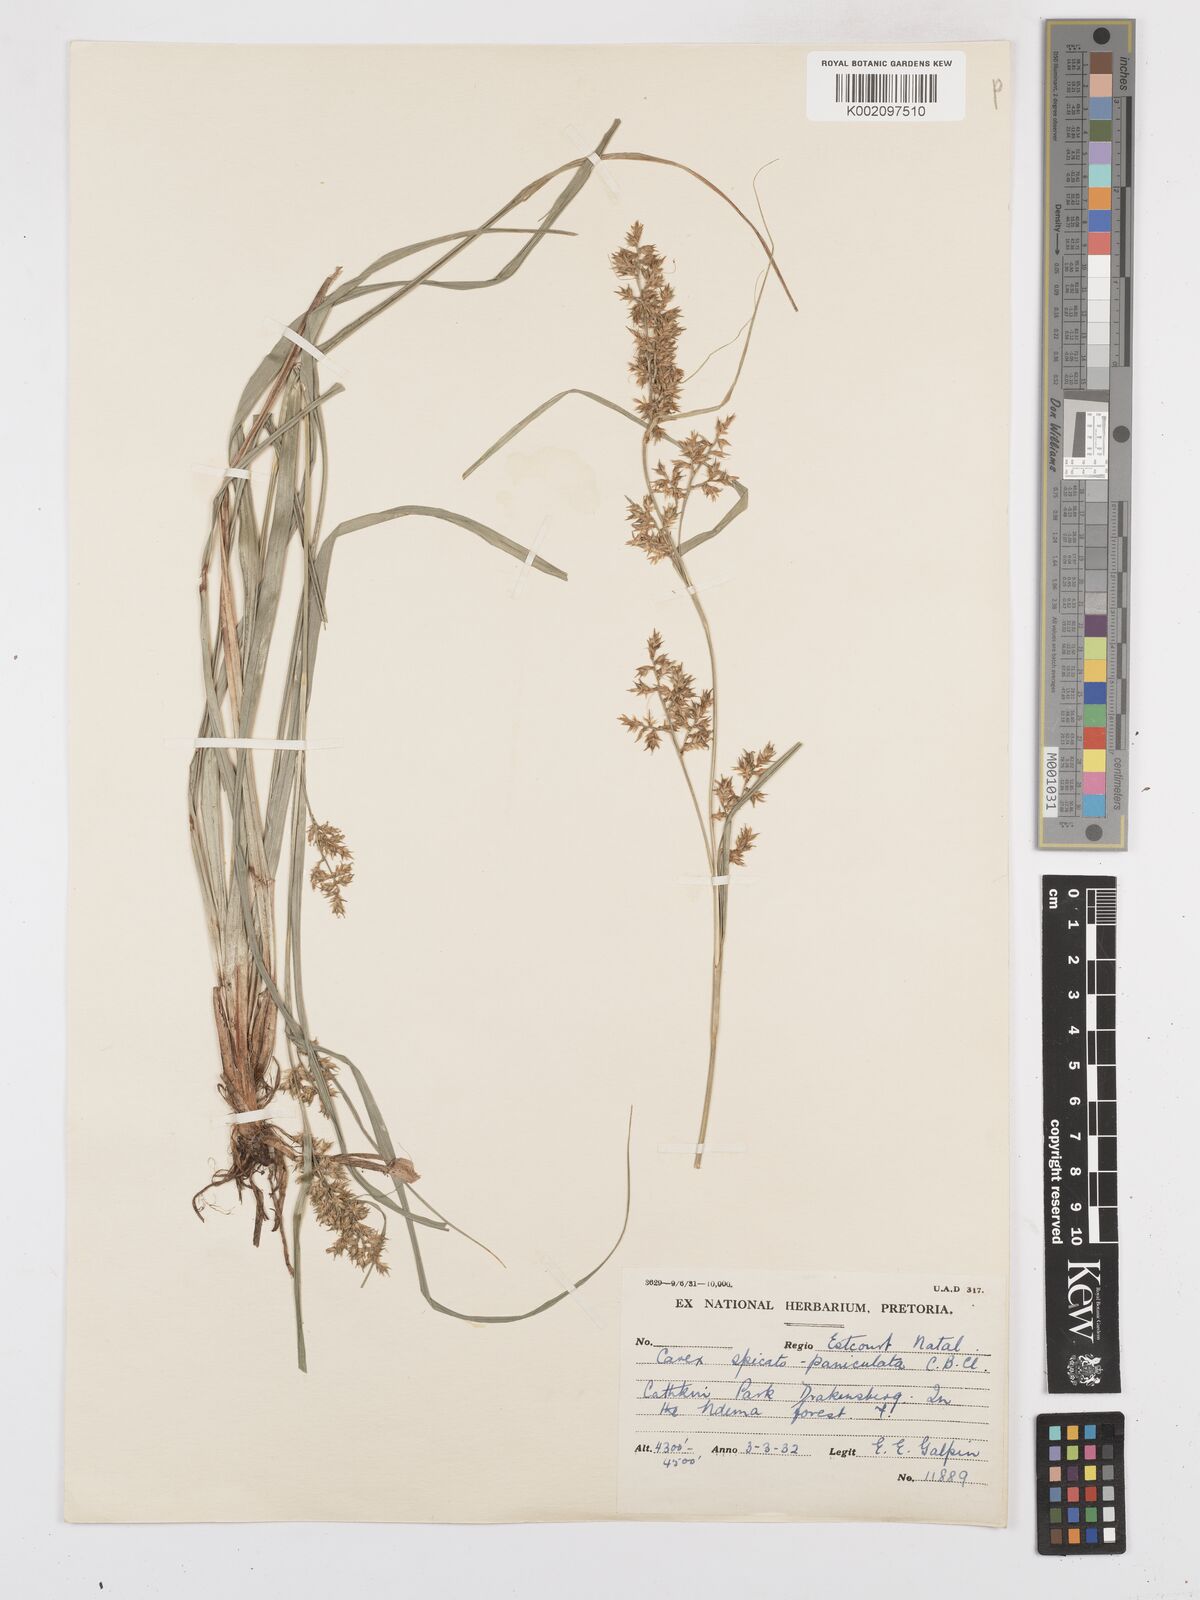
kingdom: Plantae
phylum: Tracheophyta
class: Liliopsida
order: Poales
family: Cyperaceae
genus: Carex
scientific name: Carex spicatopaniculata
